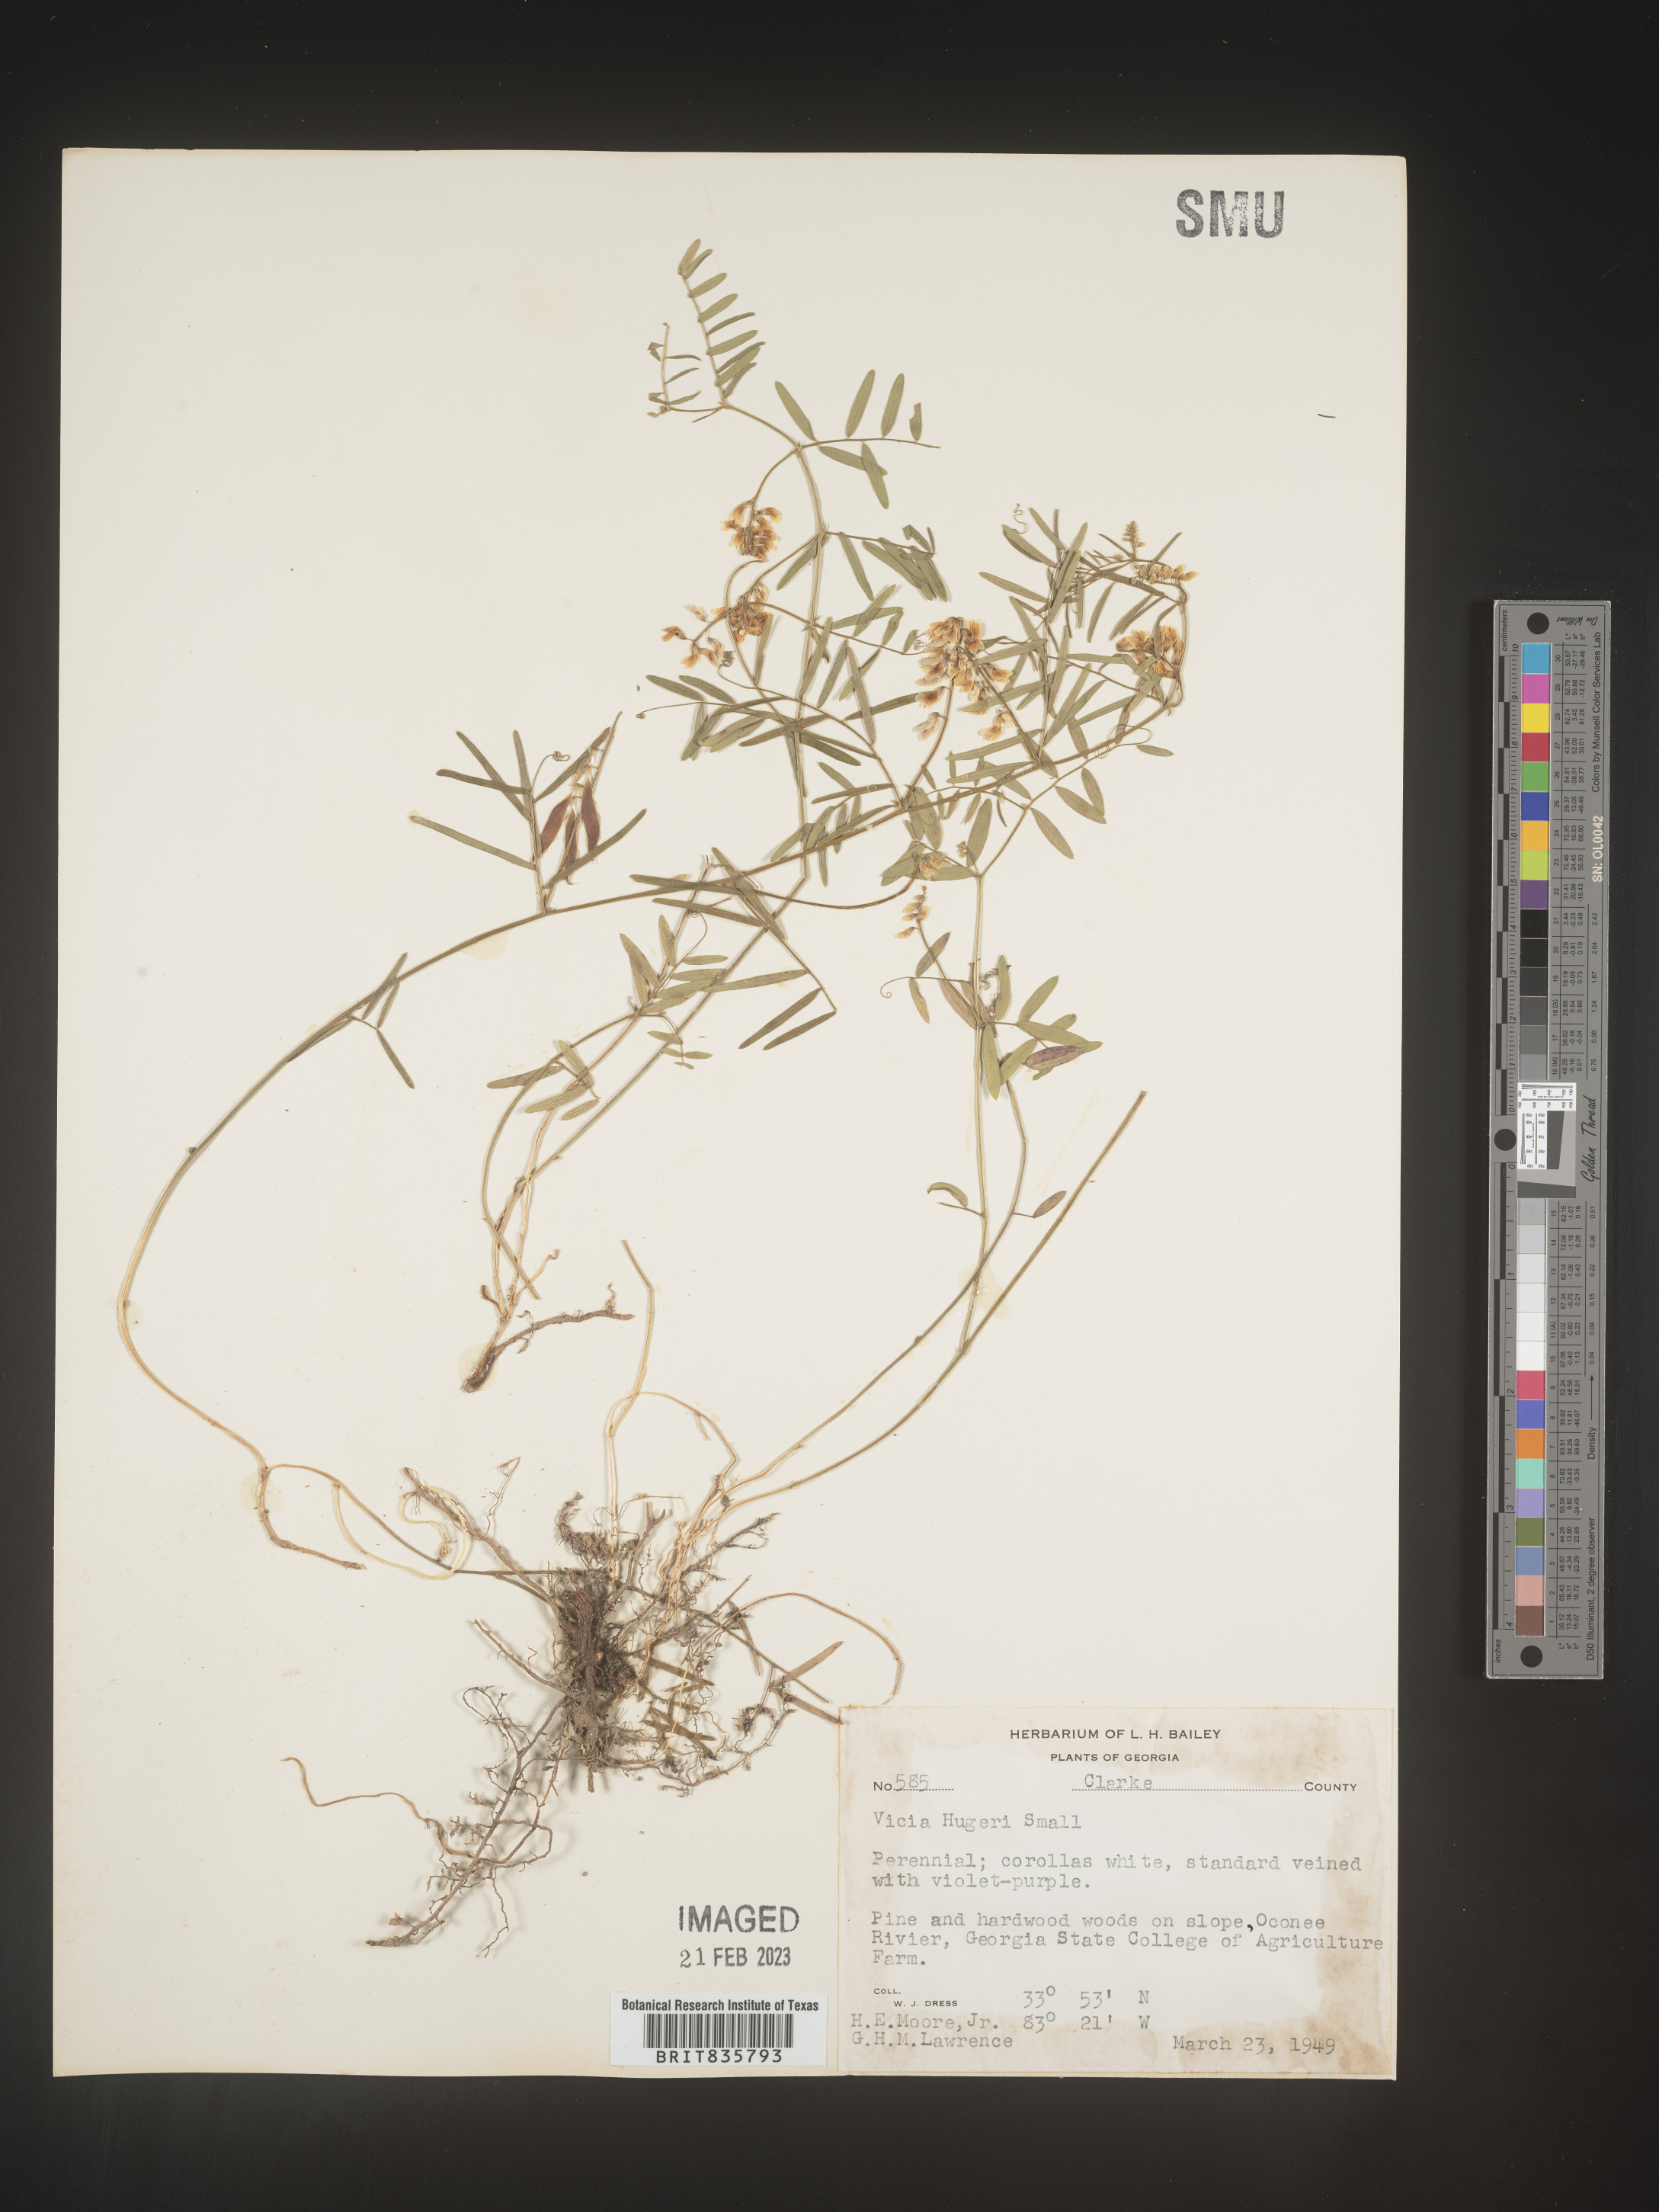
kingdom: Plantae
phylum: Tracheophyta
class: Magnoliopsida
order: Fabales
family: Fabaceae
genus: Vicia
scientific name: Vicia
